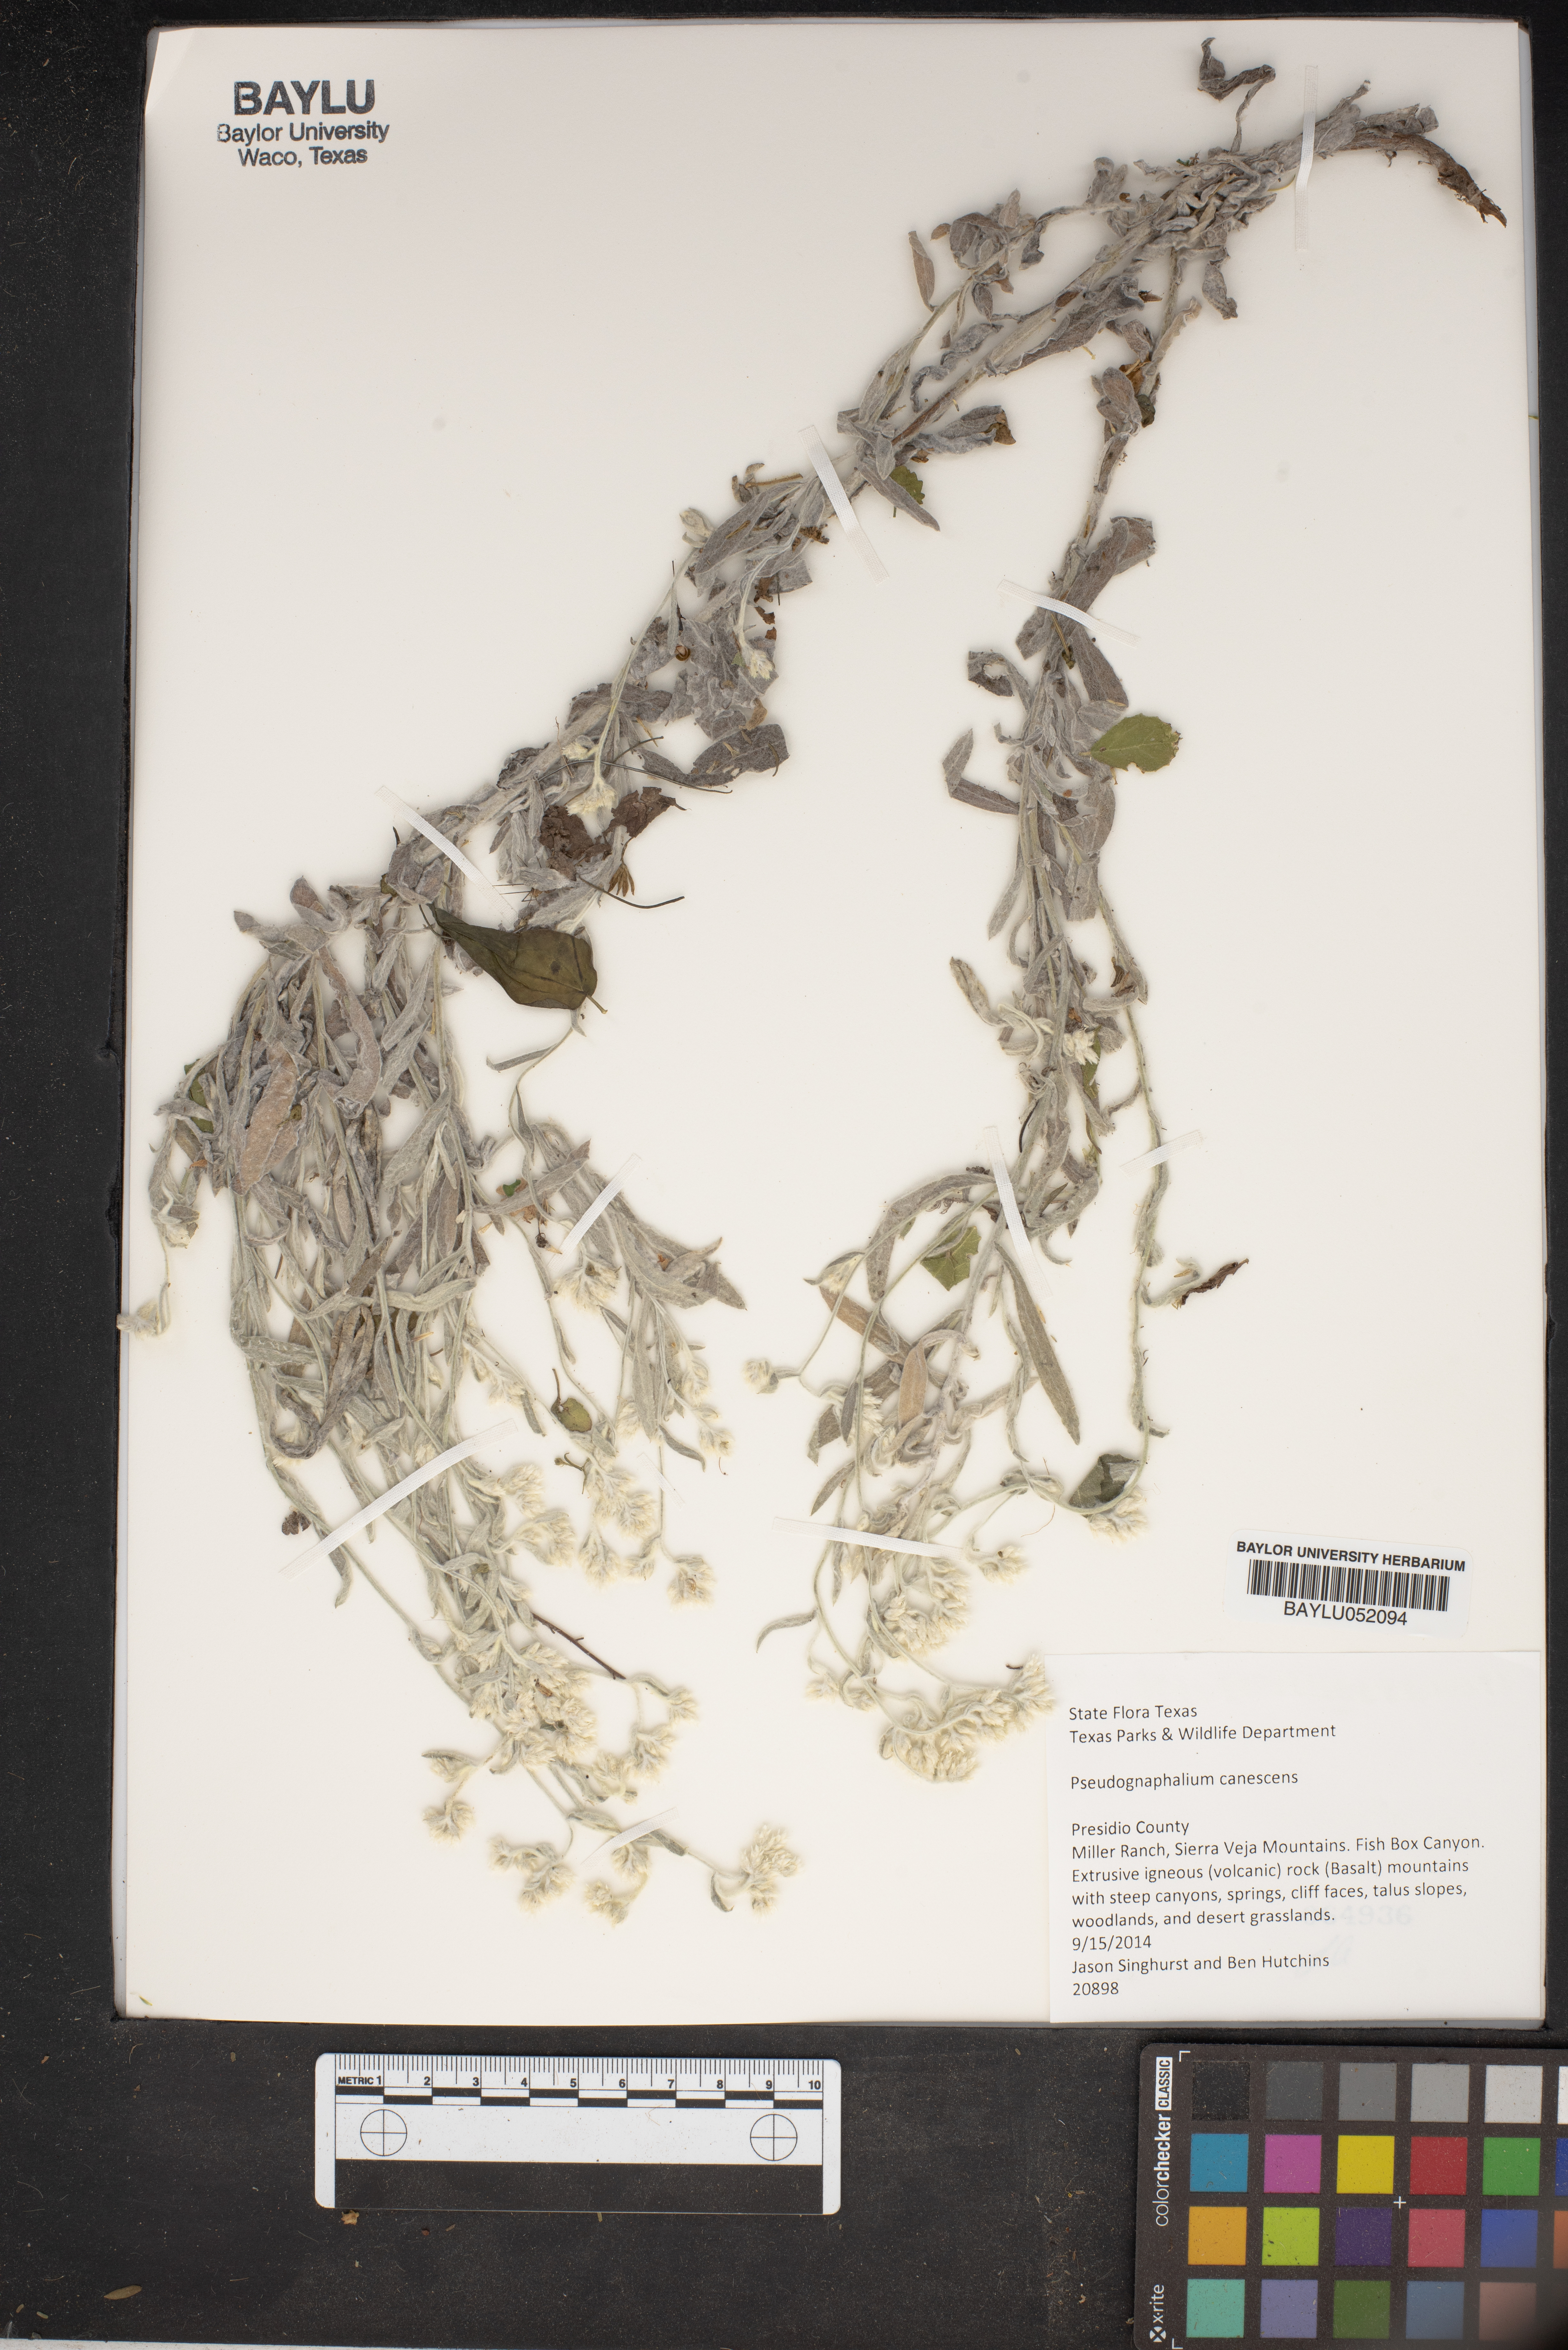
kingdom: Plantae
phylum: Tracheophyta
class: Magnoliopsida
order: Asterales
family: Asteraceae
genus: Pseudognaphalium
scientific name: Pseudognaphalium canescens
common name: Wright's rabbit-tobacco
